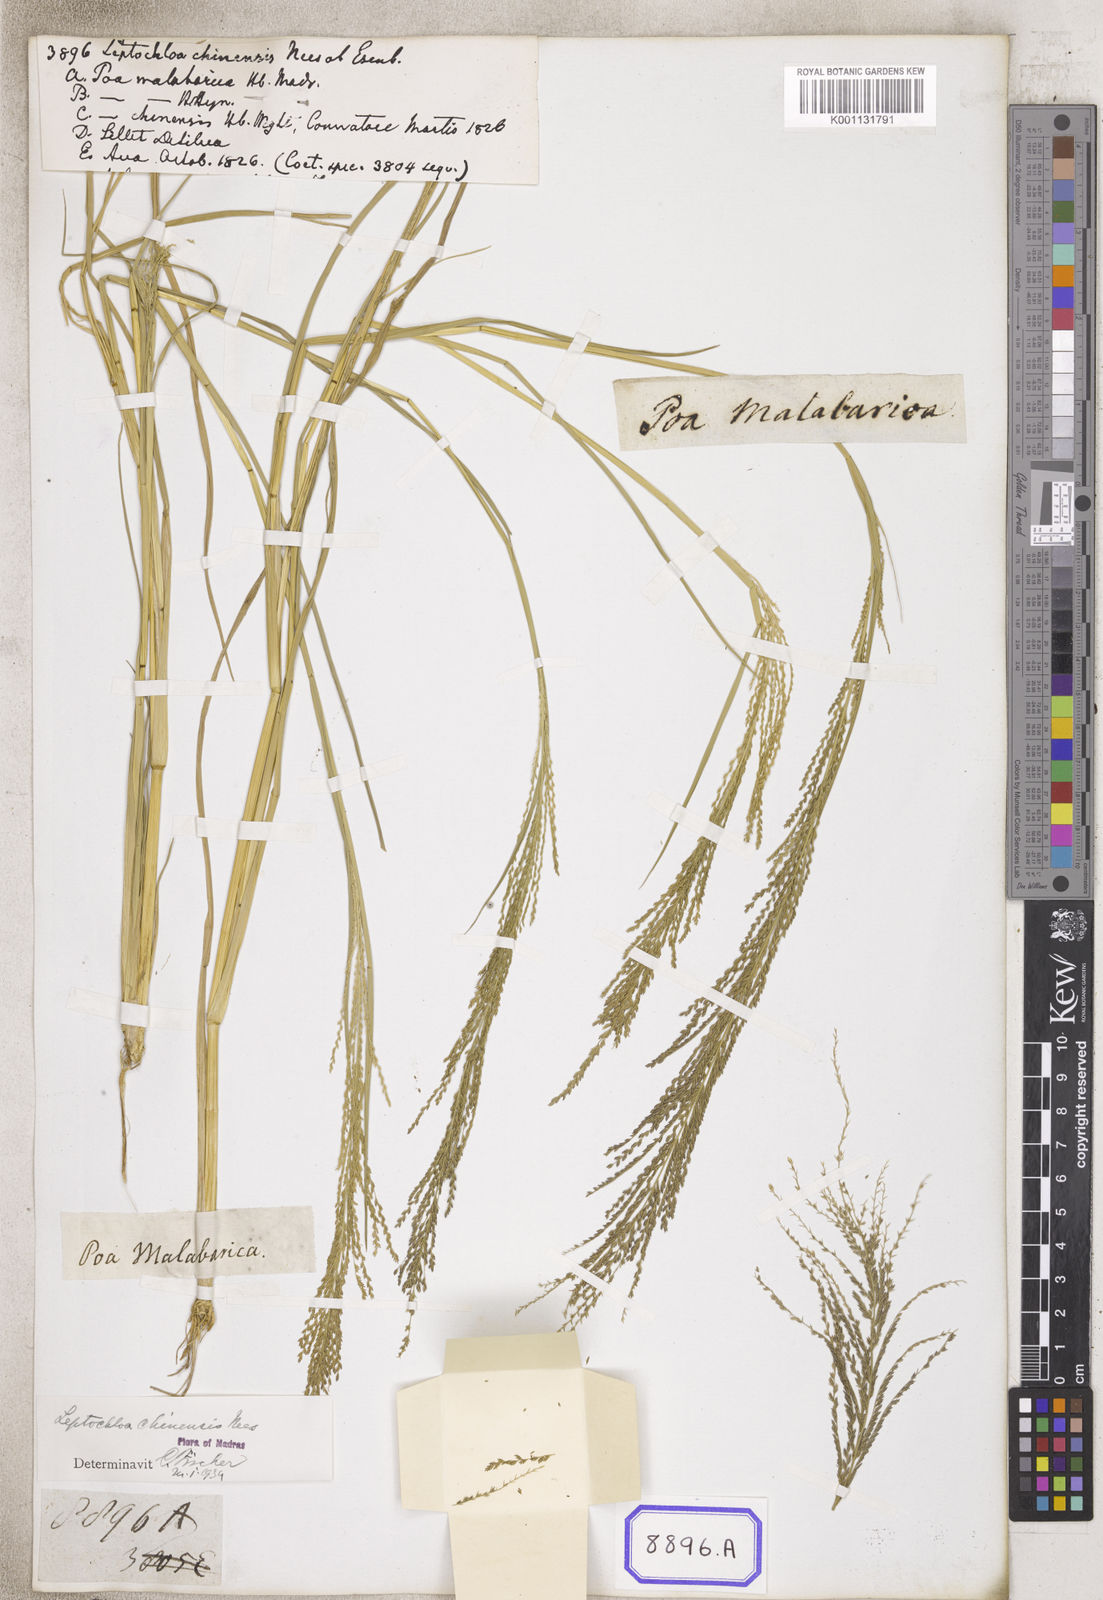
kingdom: Plantae
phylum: Tracheophyta
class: Liliopsida
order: Poales
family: Poaceae
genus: Leptochloa
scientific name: Leptochloa chinensis
